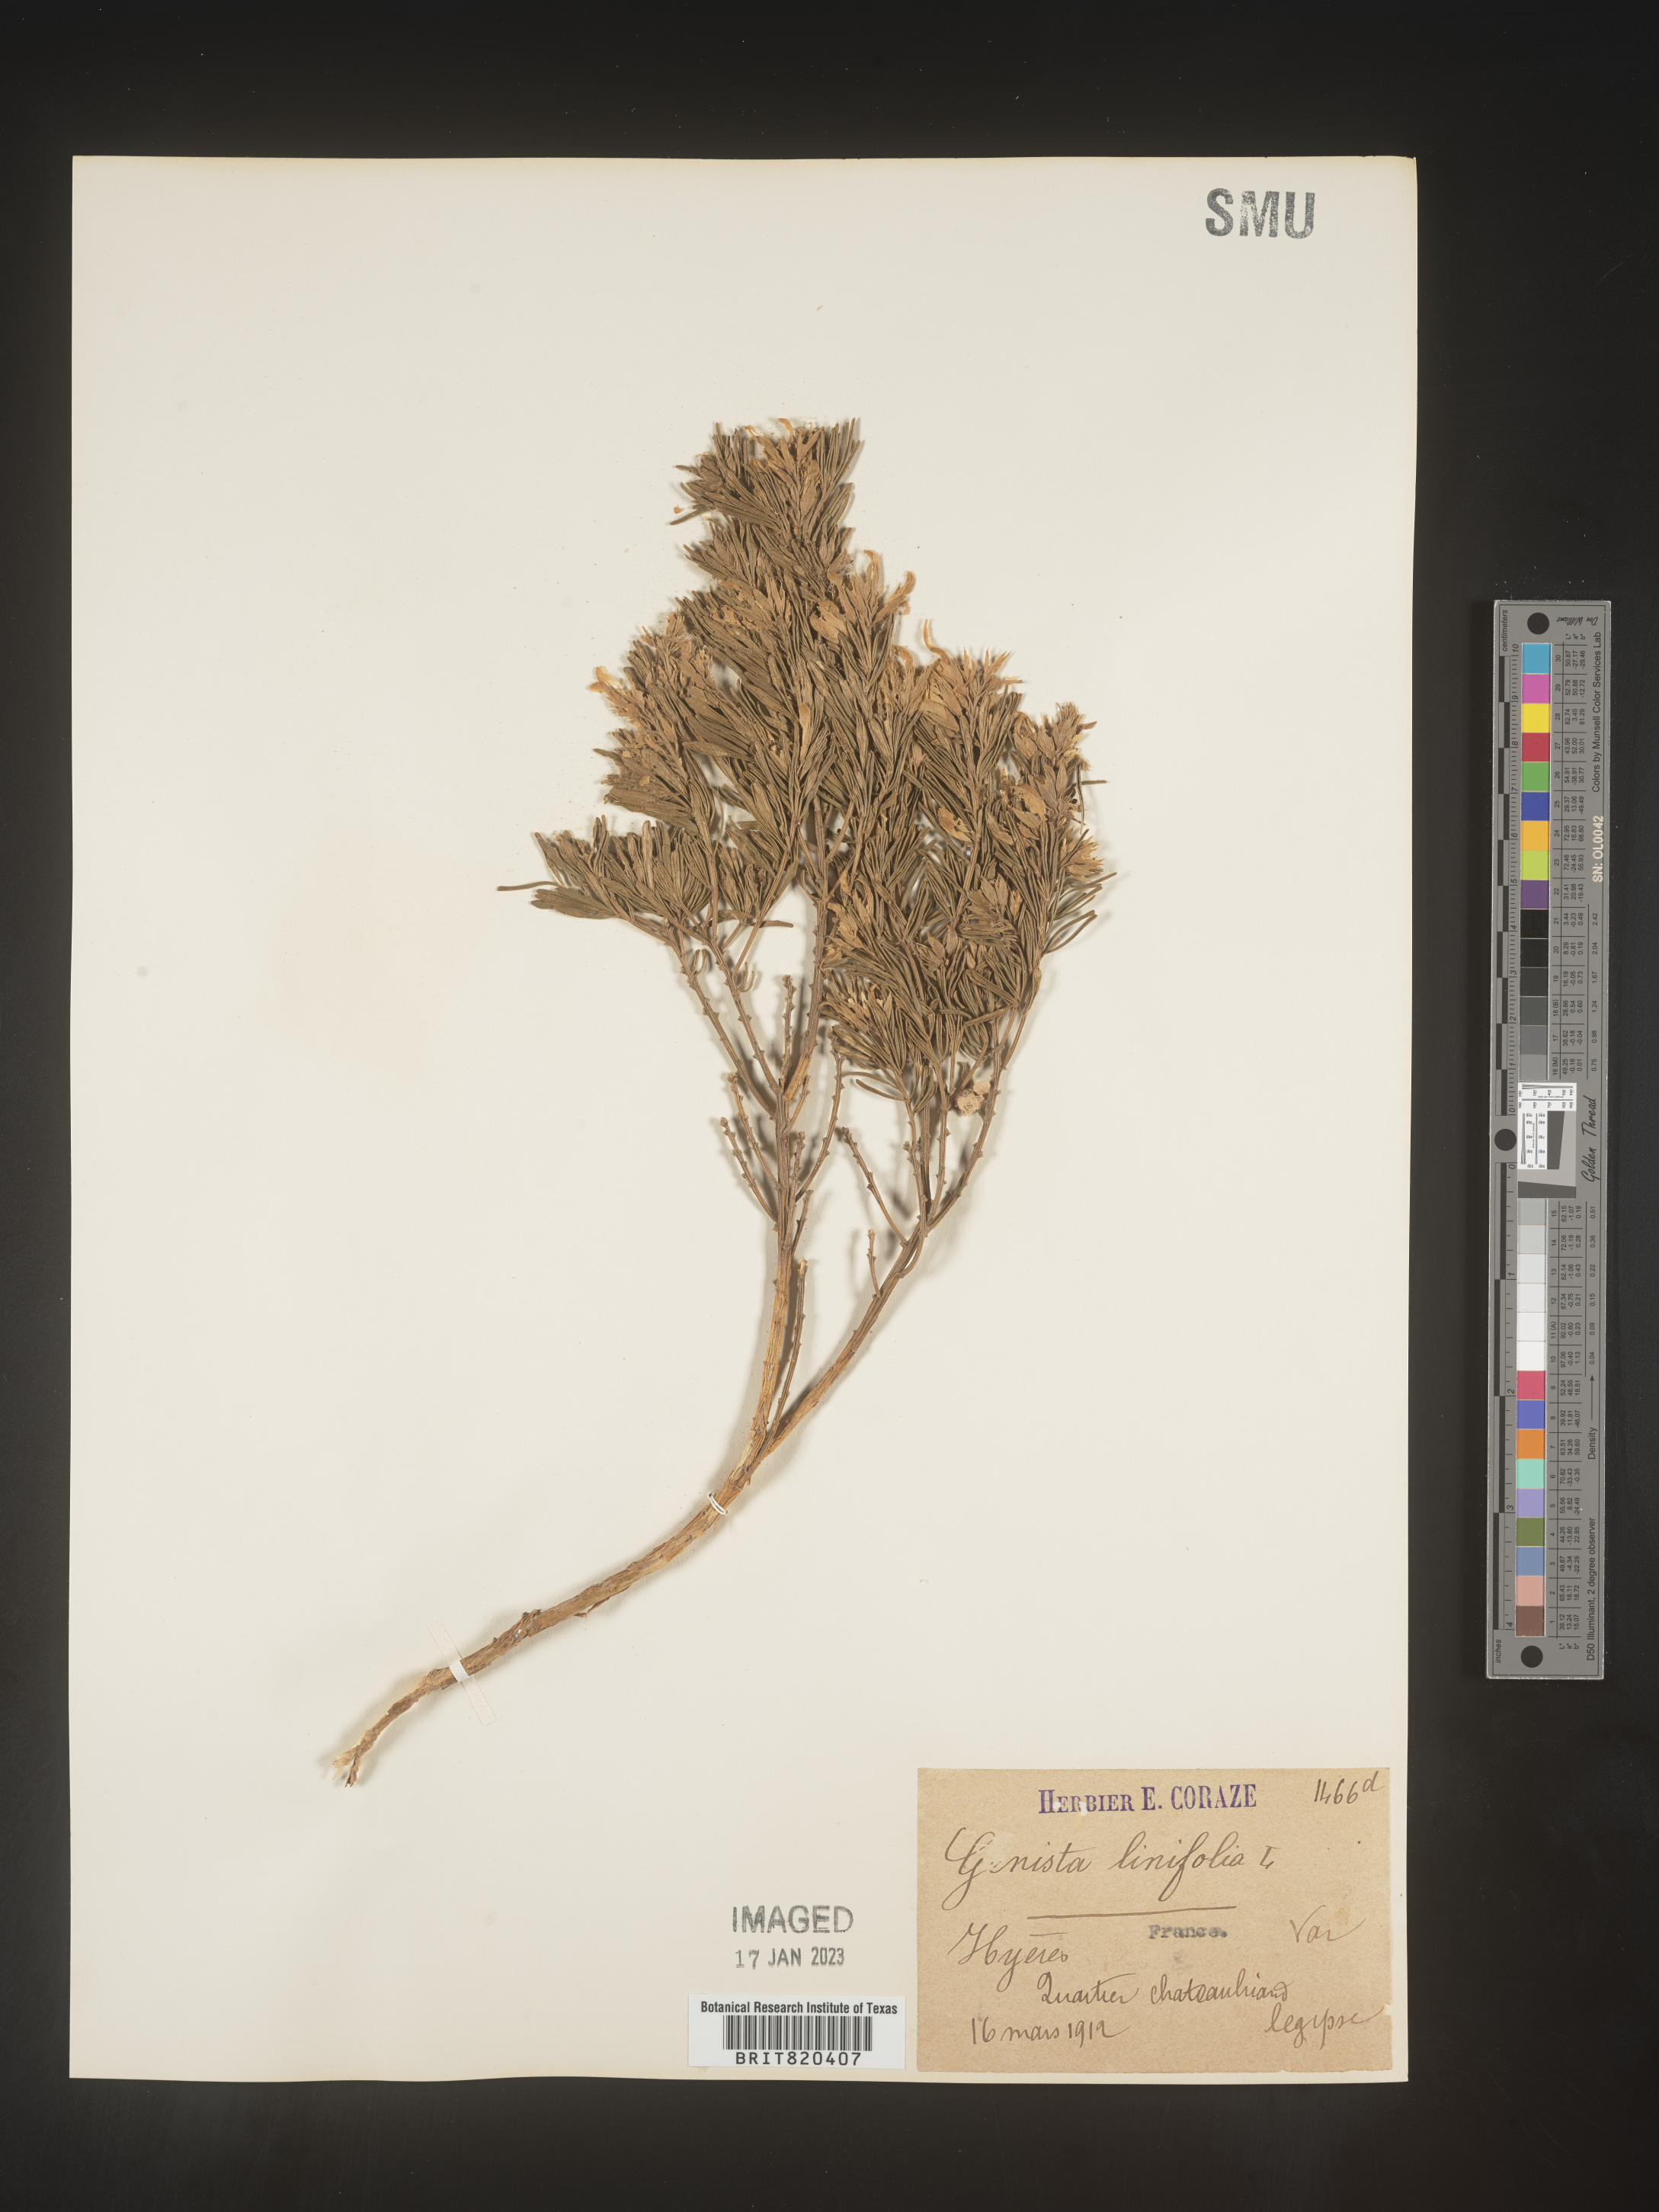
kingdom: Plantae
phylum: Tracheophyta
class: Magnoliopsida
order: Fabales
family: Fabaceae
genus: Genista
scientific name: Genista
